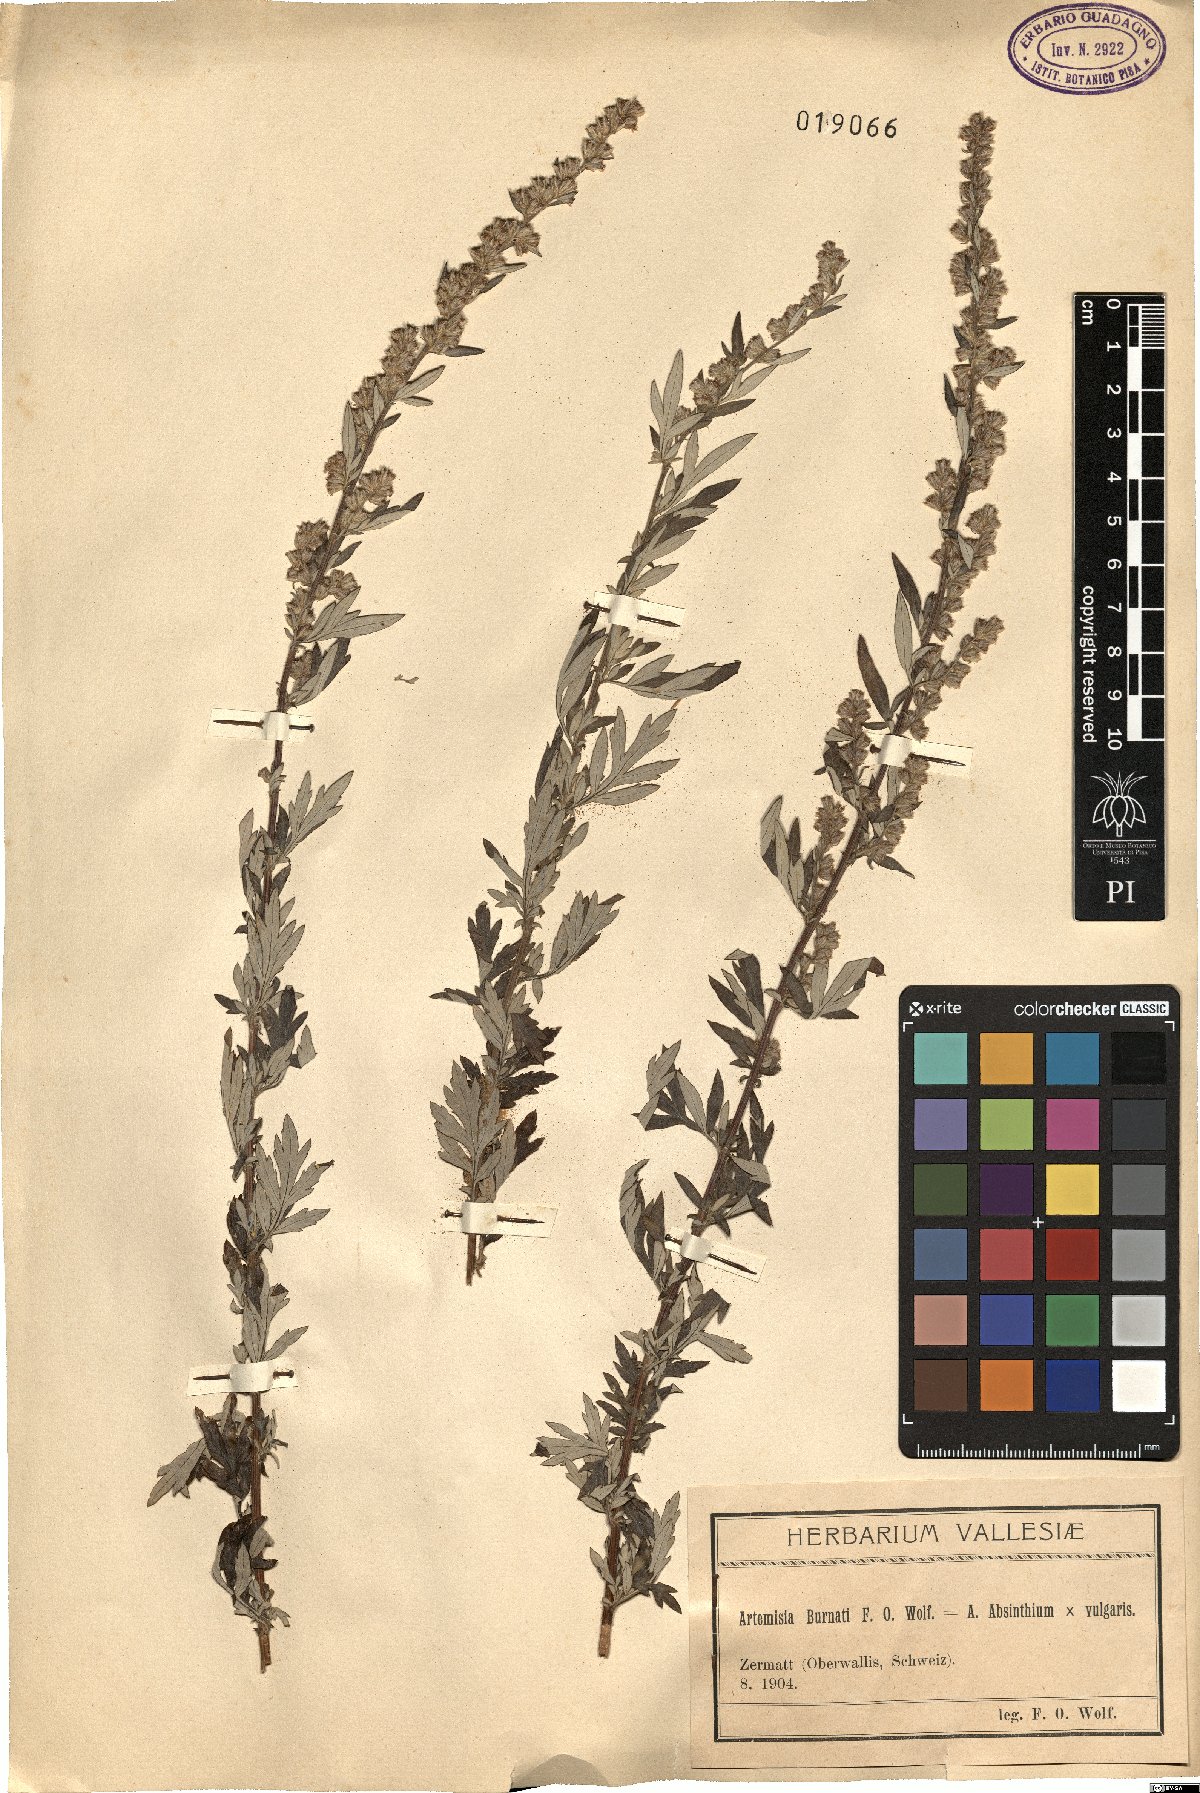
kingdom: Plantae
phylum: Tracheophyta
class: Magnoliopsida
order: Asterales
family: Asteraceae
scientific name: Asteraceae
